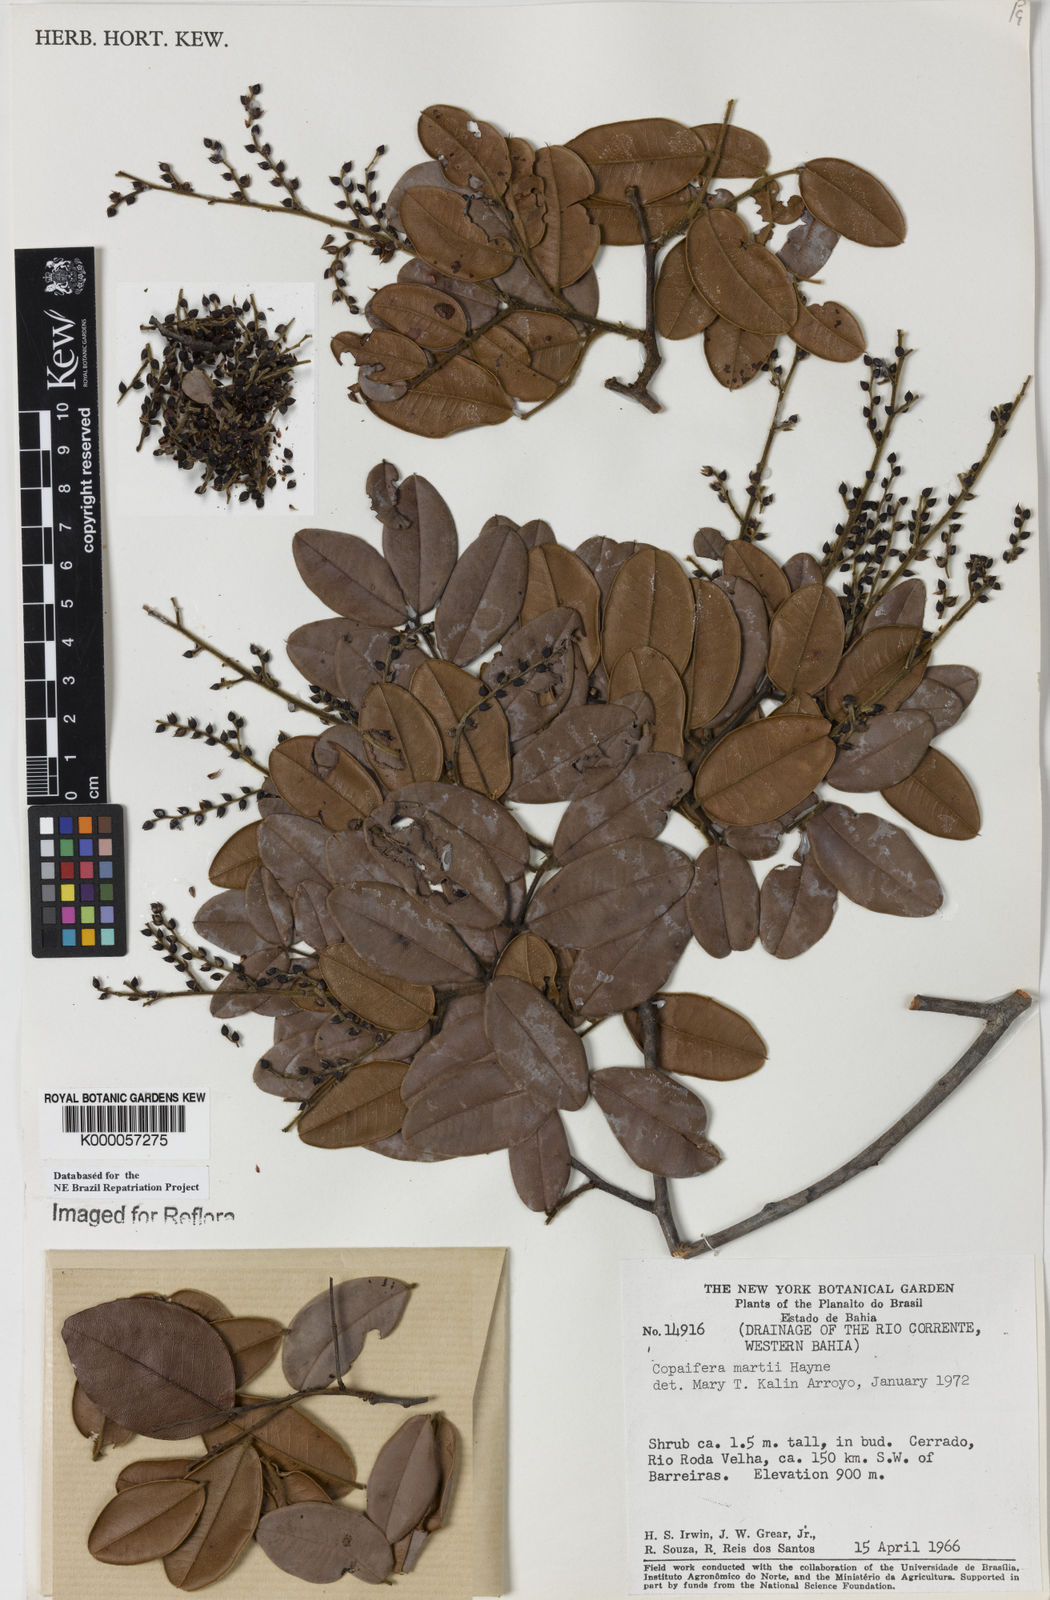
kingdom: Plantae
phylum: Tracheophyta
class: Magnoliopsida
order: Fabales
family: Fabaceae
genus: Copaifera
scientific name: Copaifera martii
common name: Copaiba
